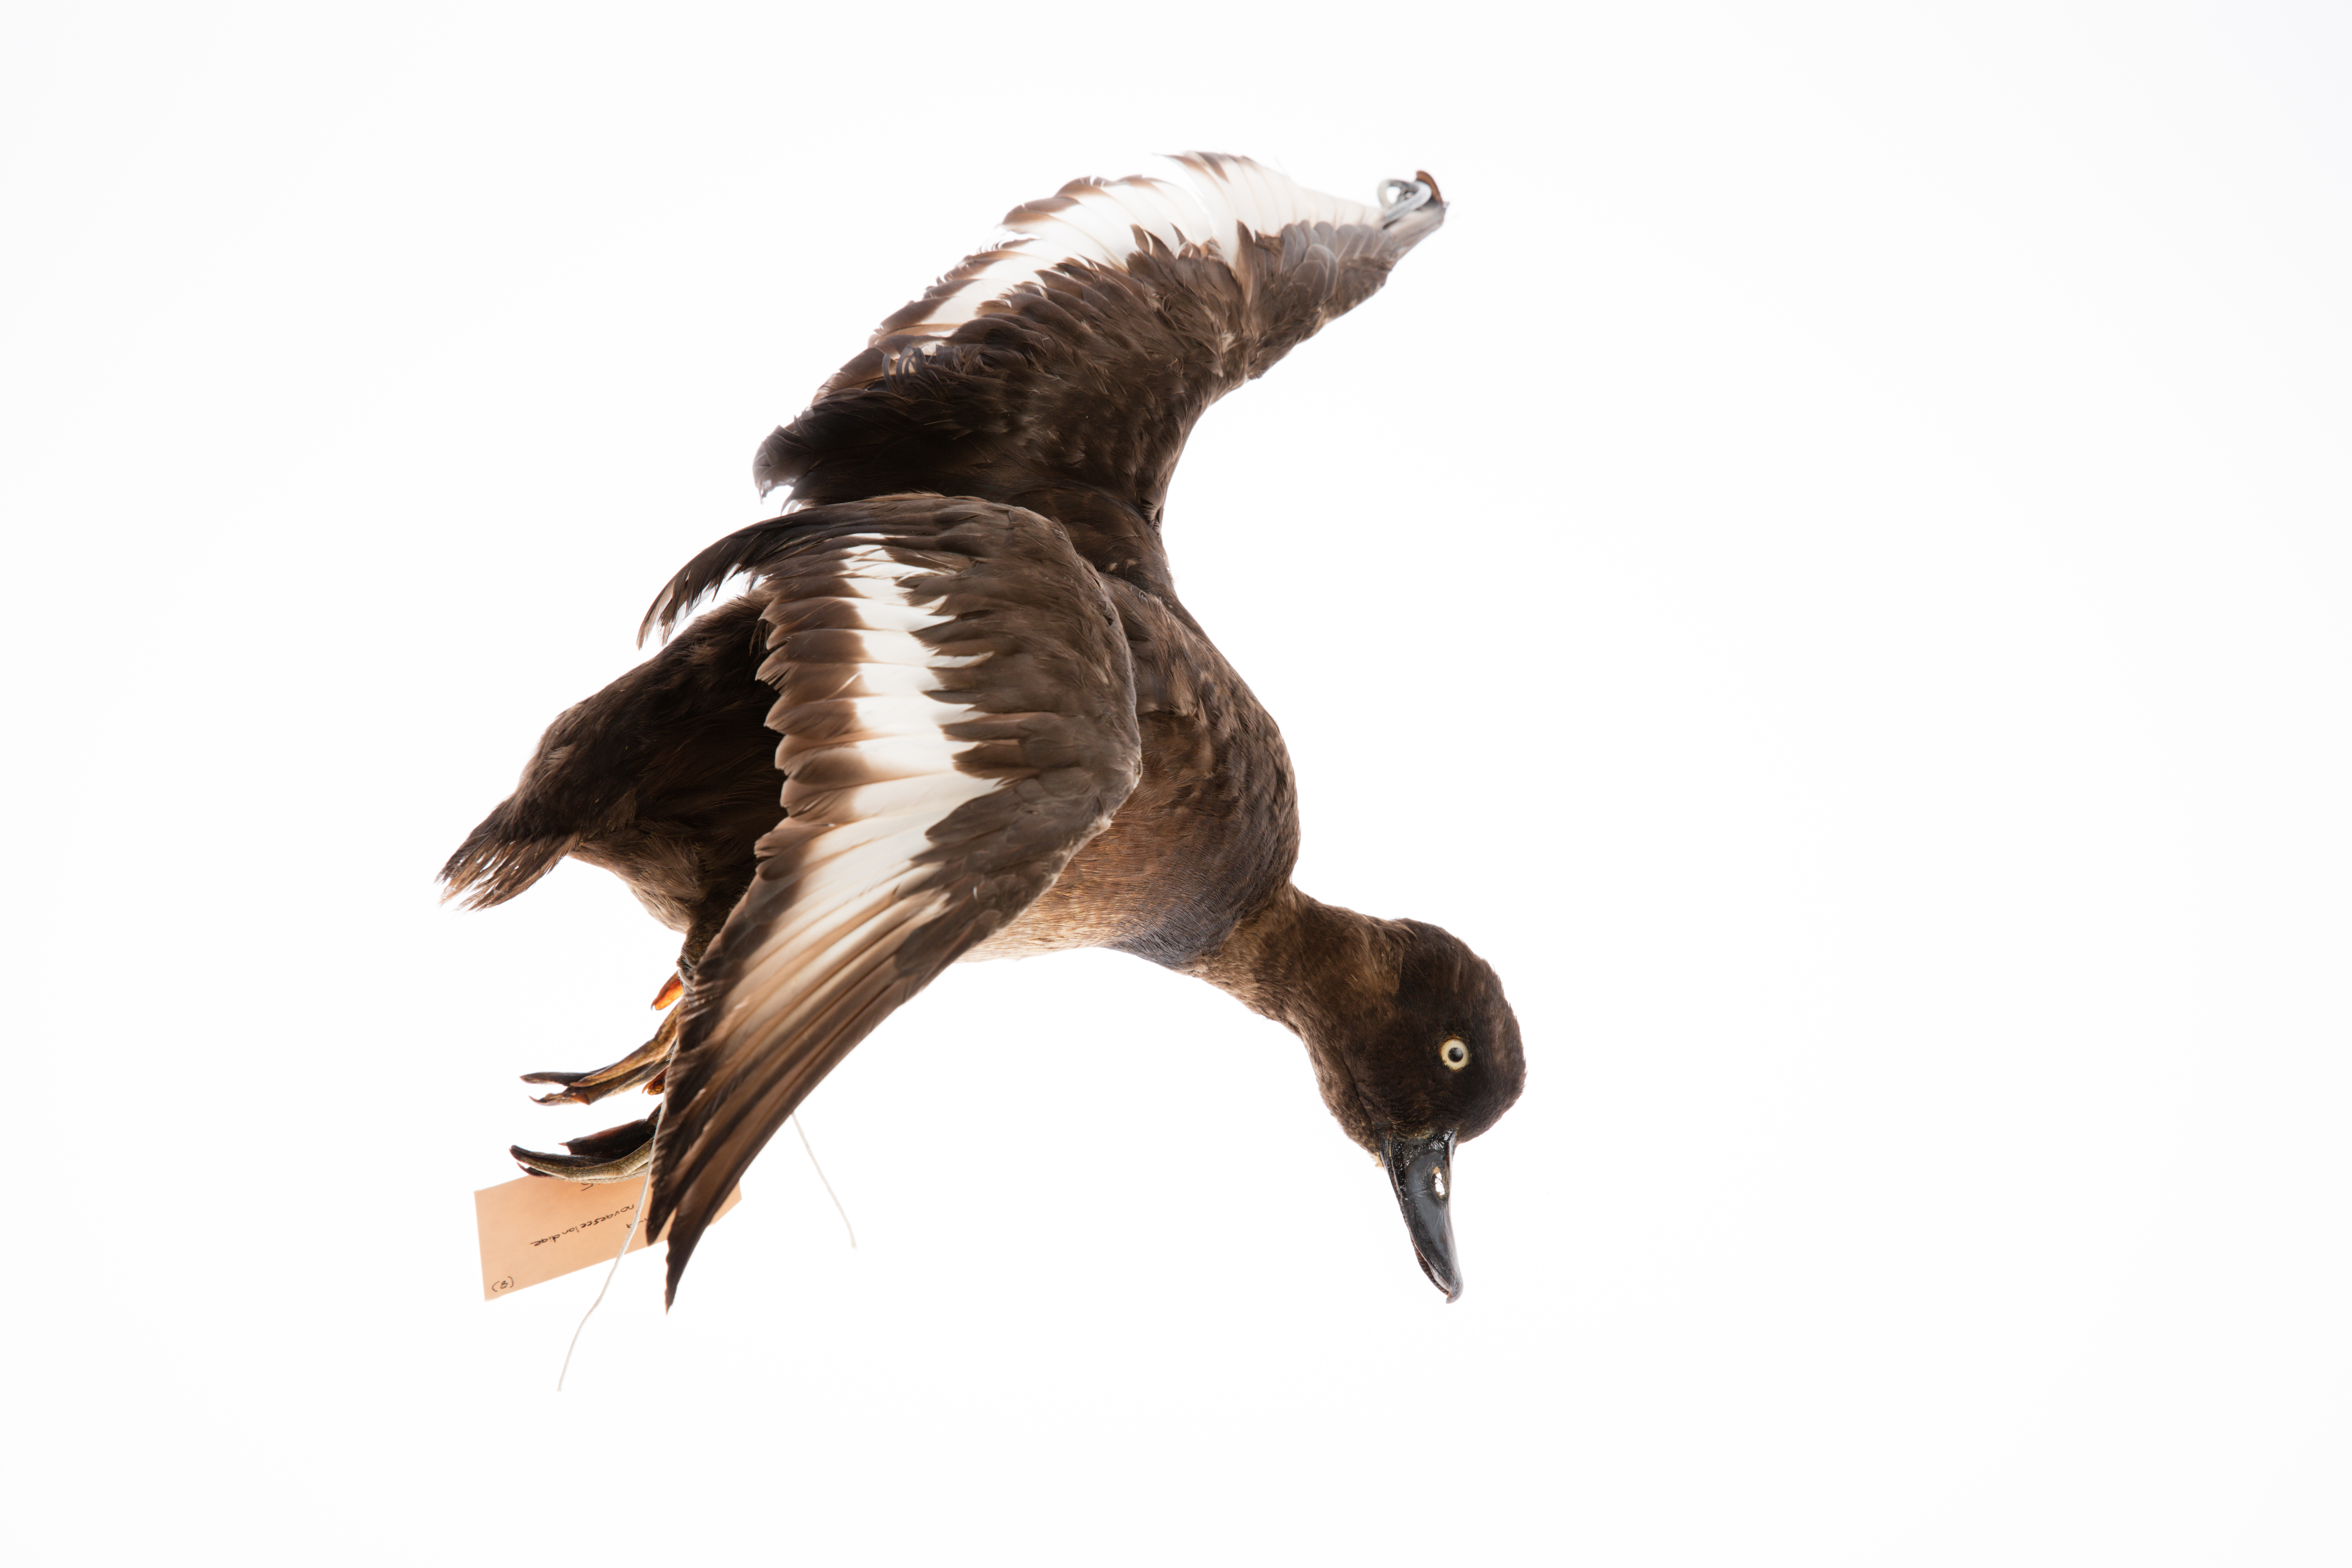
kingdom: Animalia
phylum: Chordata
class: Aves
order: Anseriformes
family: Anatidae
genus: Aythya
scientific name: Aythya novaeseelandiae
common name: New zealand scaup
